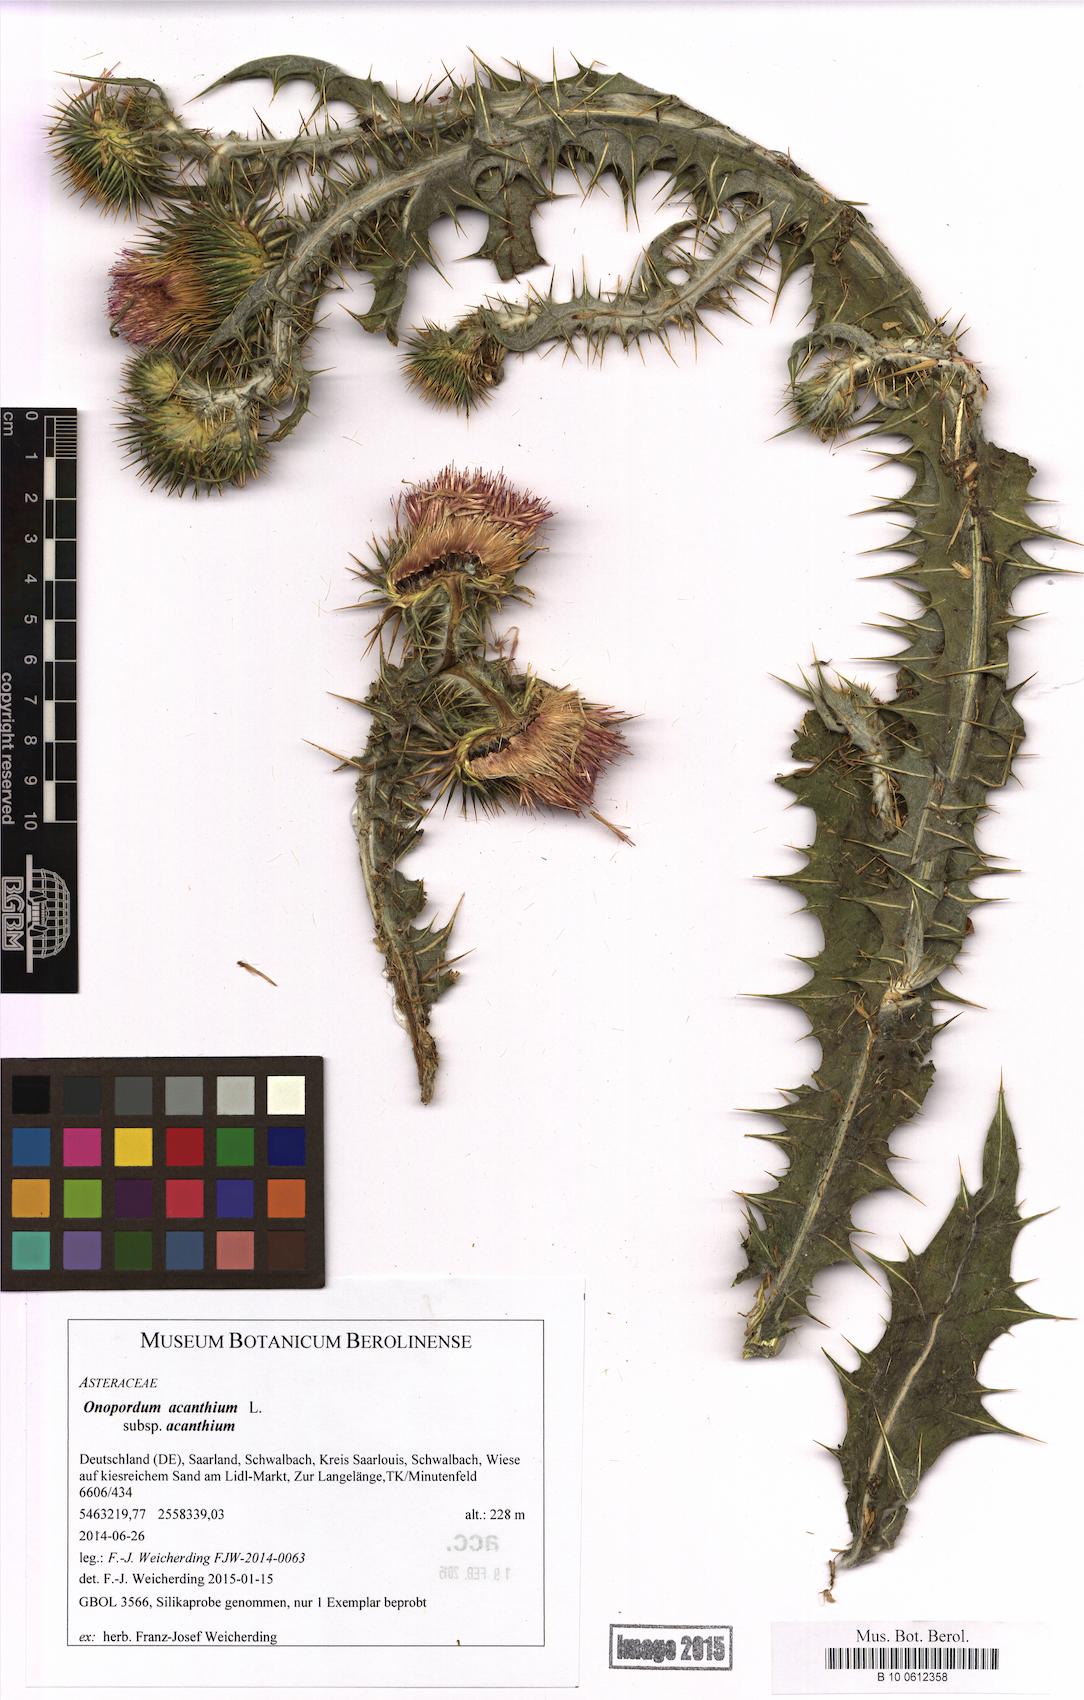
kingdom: Plantae
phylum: Tracheophyta
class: Magnoliopsida
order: Asterales
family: Asteraceae
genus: Onopordum
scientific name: Onopordum acanthium
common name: Scotch thistle
